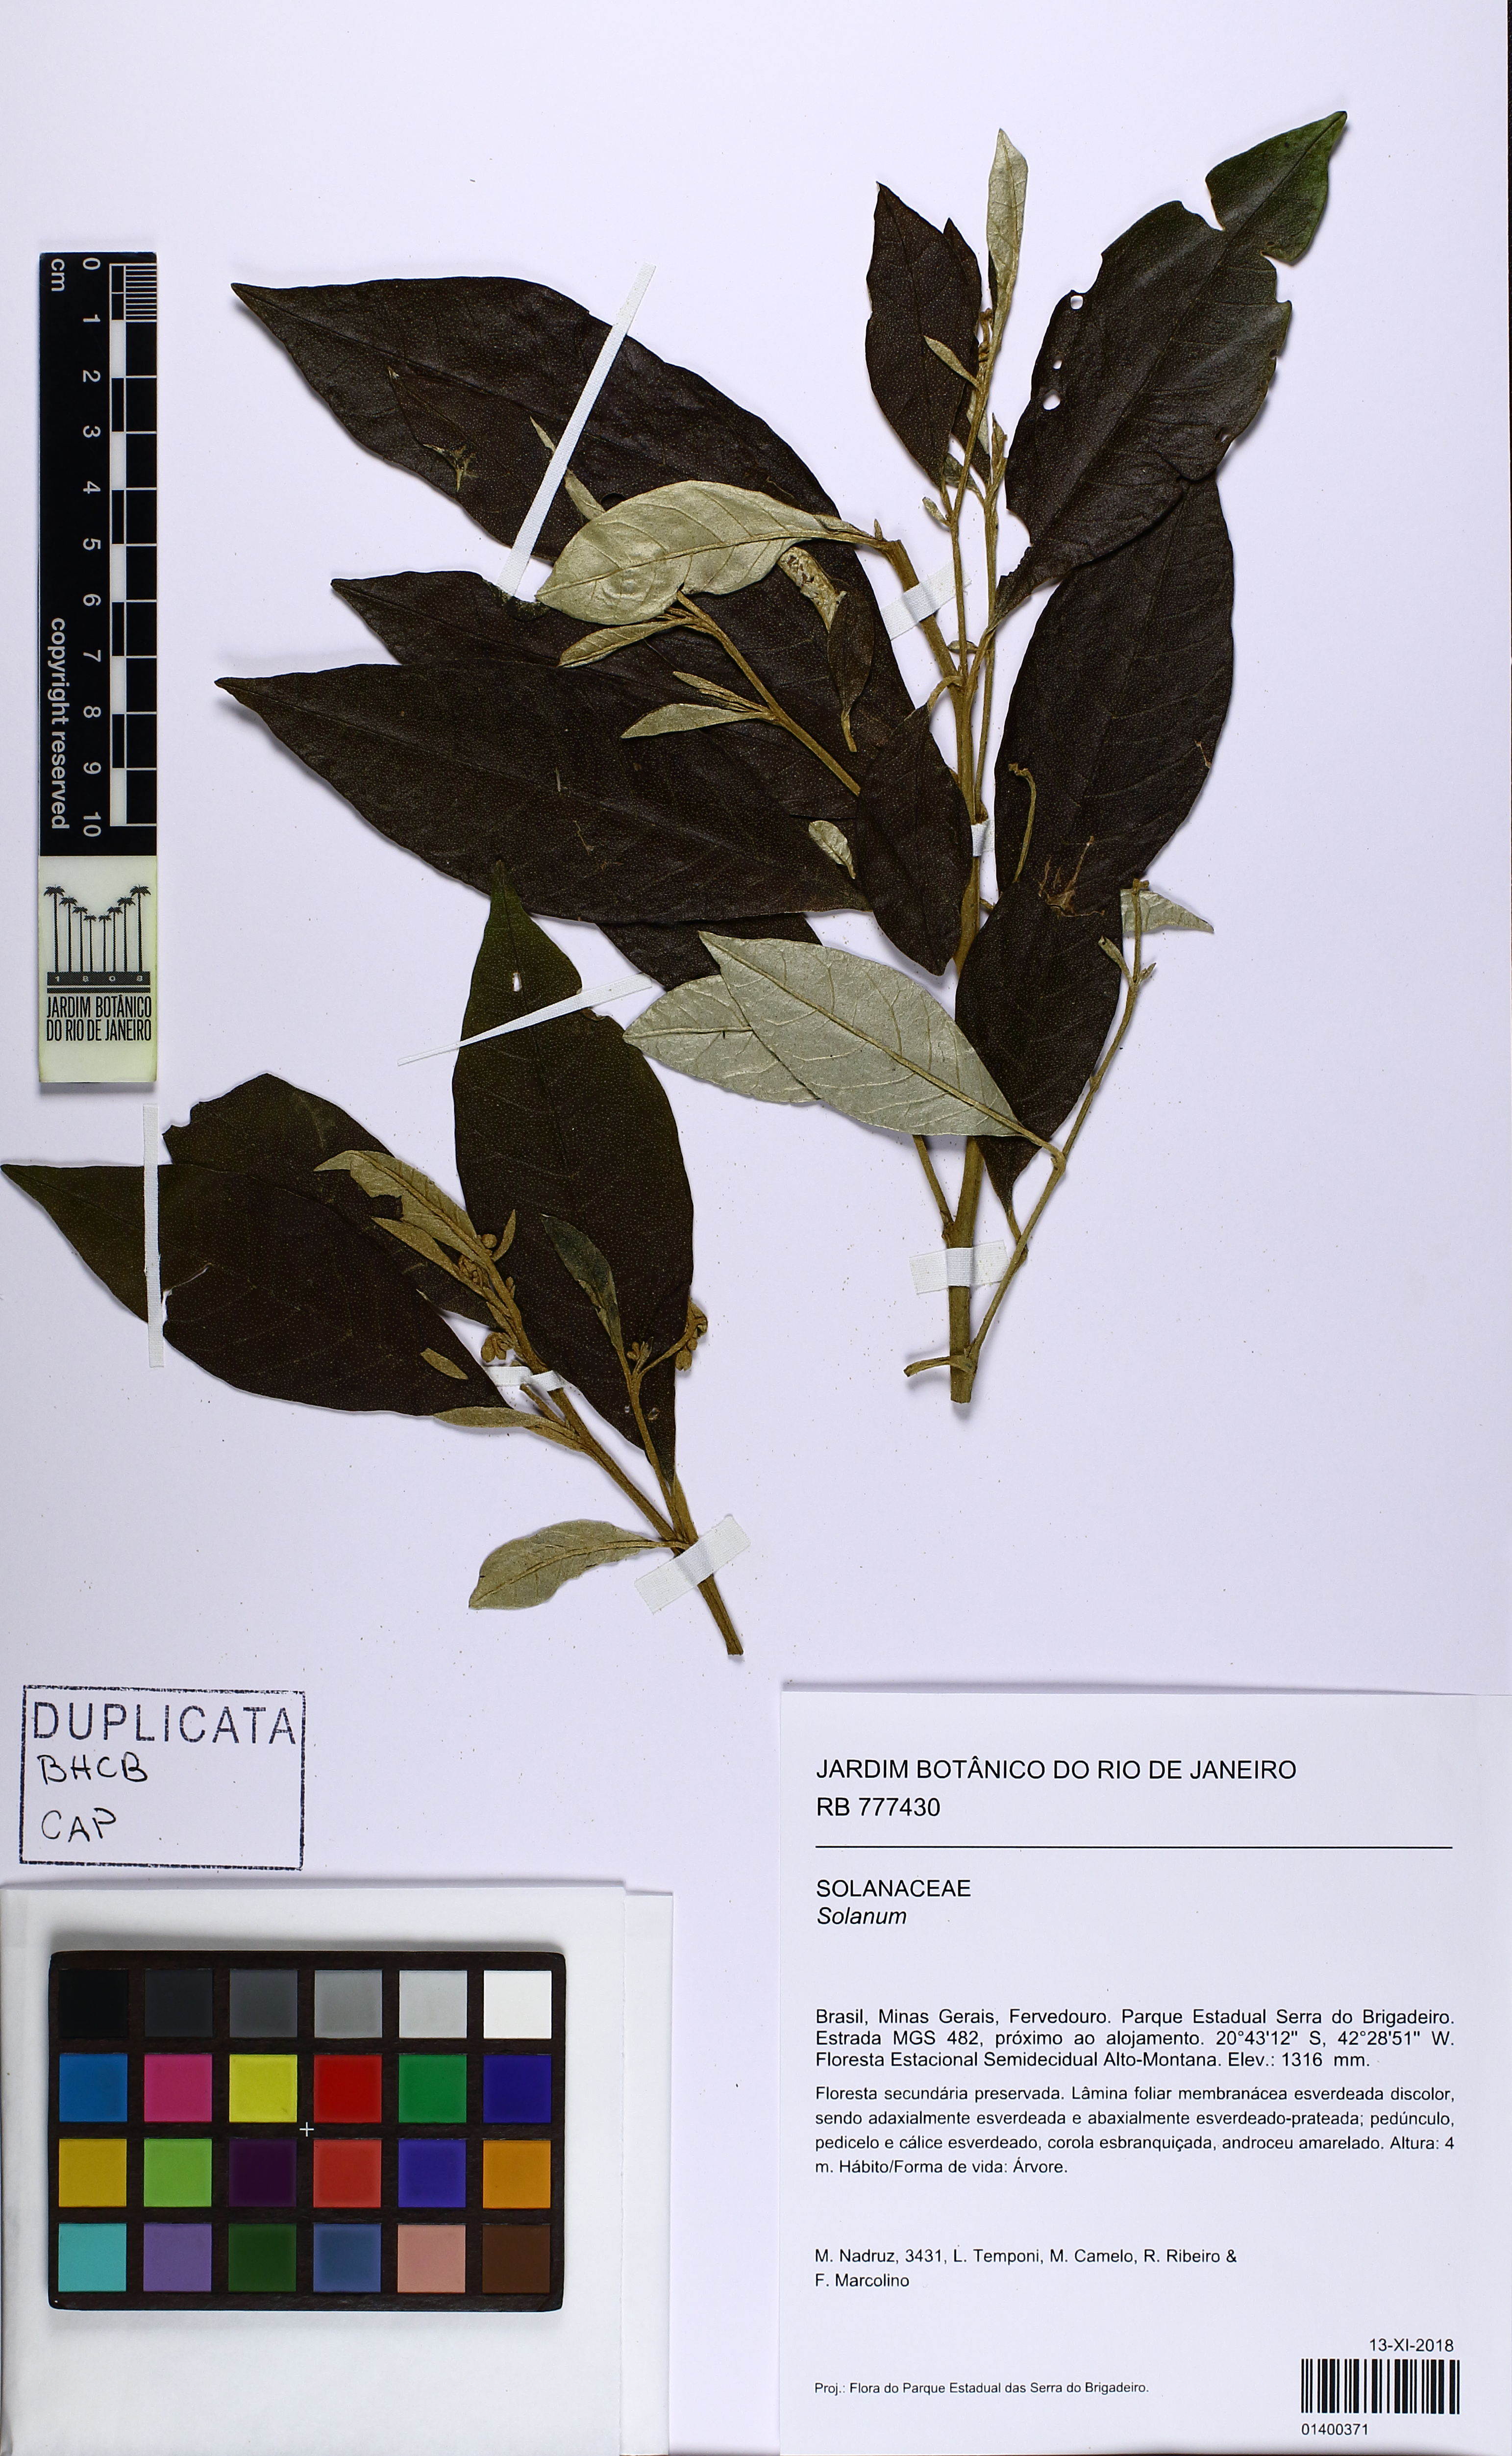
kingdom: Plantae
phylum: Tracheophyta
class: Magnoliopsida
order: Solanales
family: Solanaceae
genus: Solanum
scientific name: Solanum swartzianum
